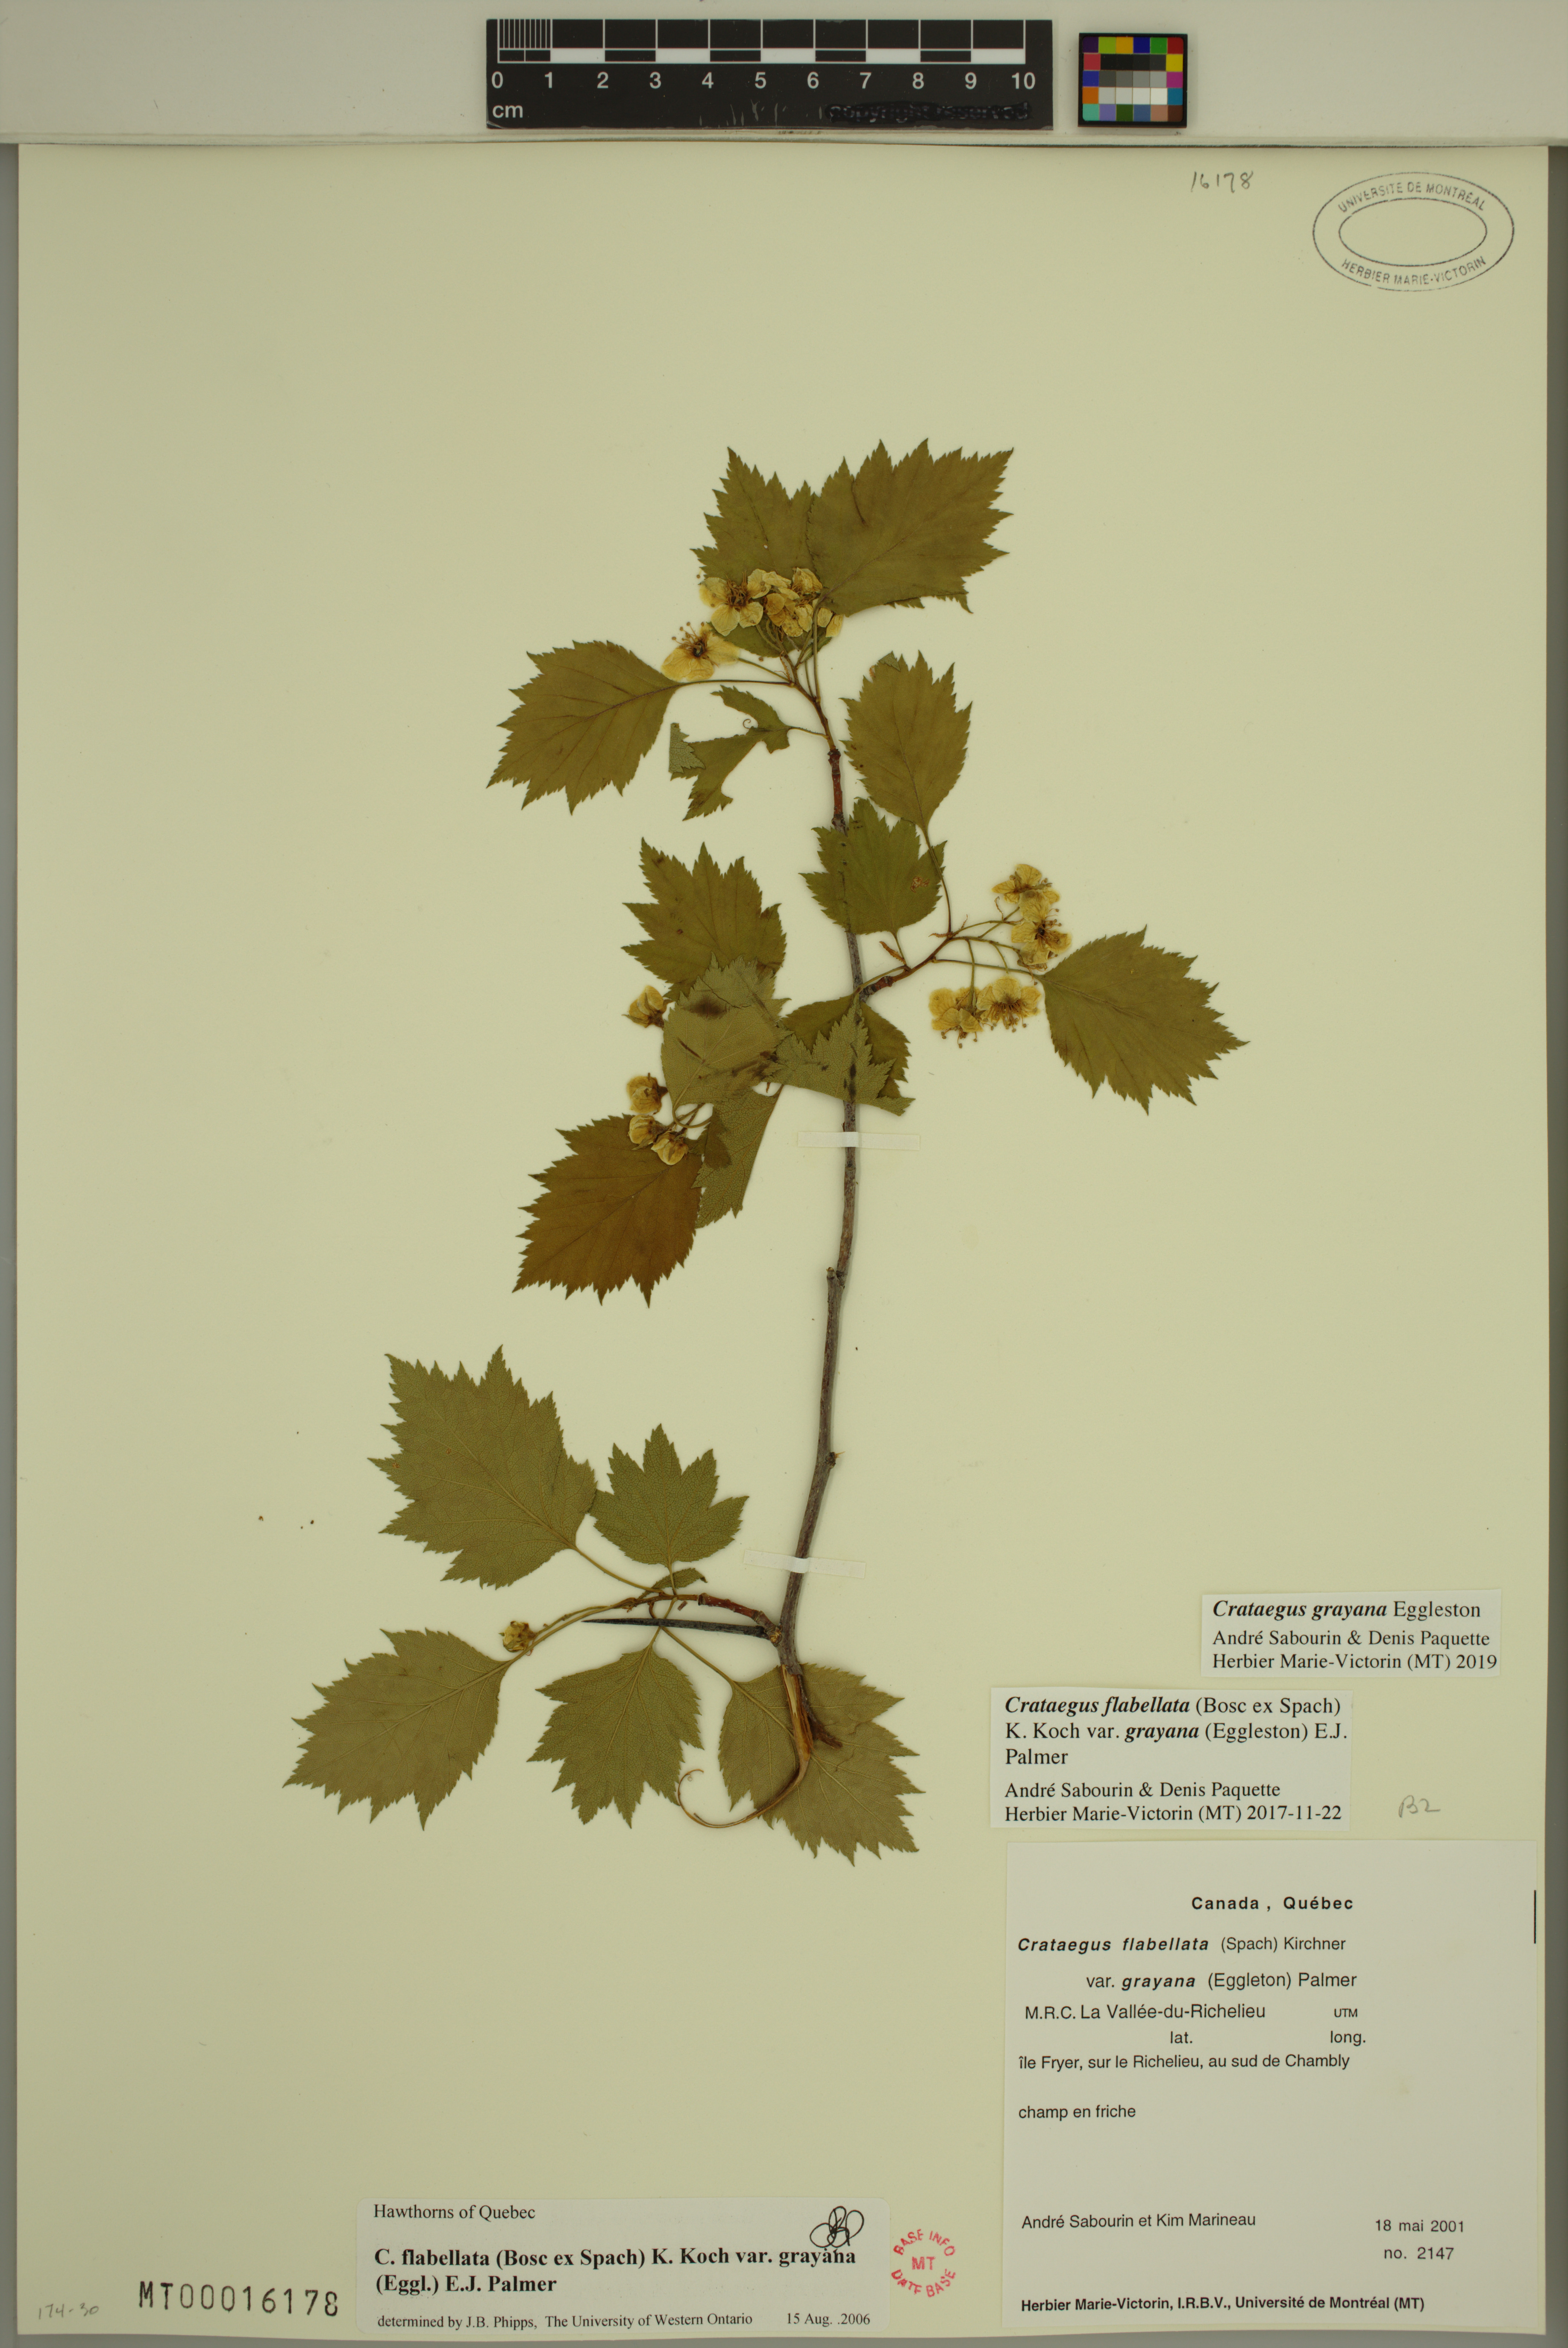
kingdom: Plantae
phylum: Tracheophyta
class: Magnoliopsida
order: Rosales
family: Rosaceae
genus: Crataegus
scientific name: Crataegus schuettei
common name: Schuette's hawthorn
